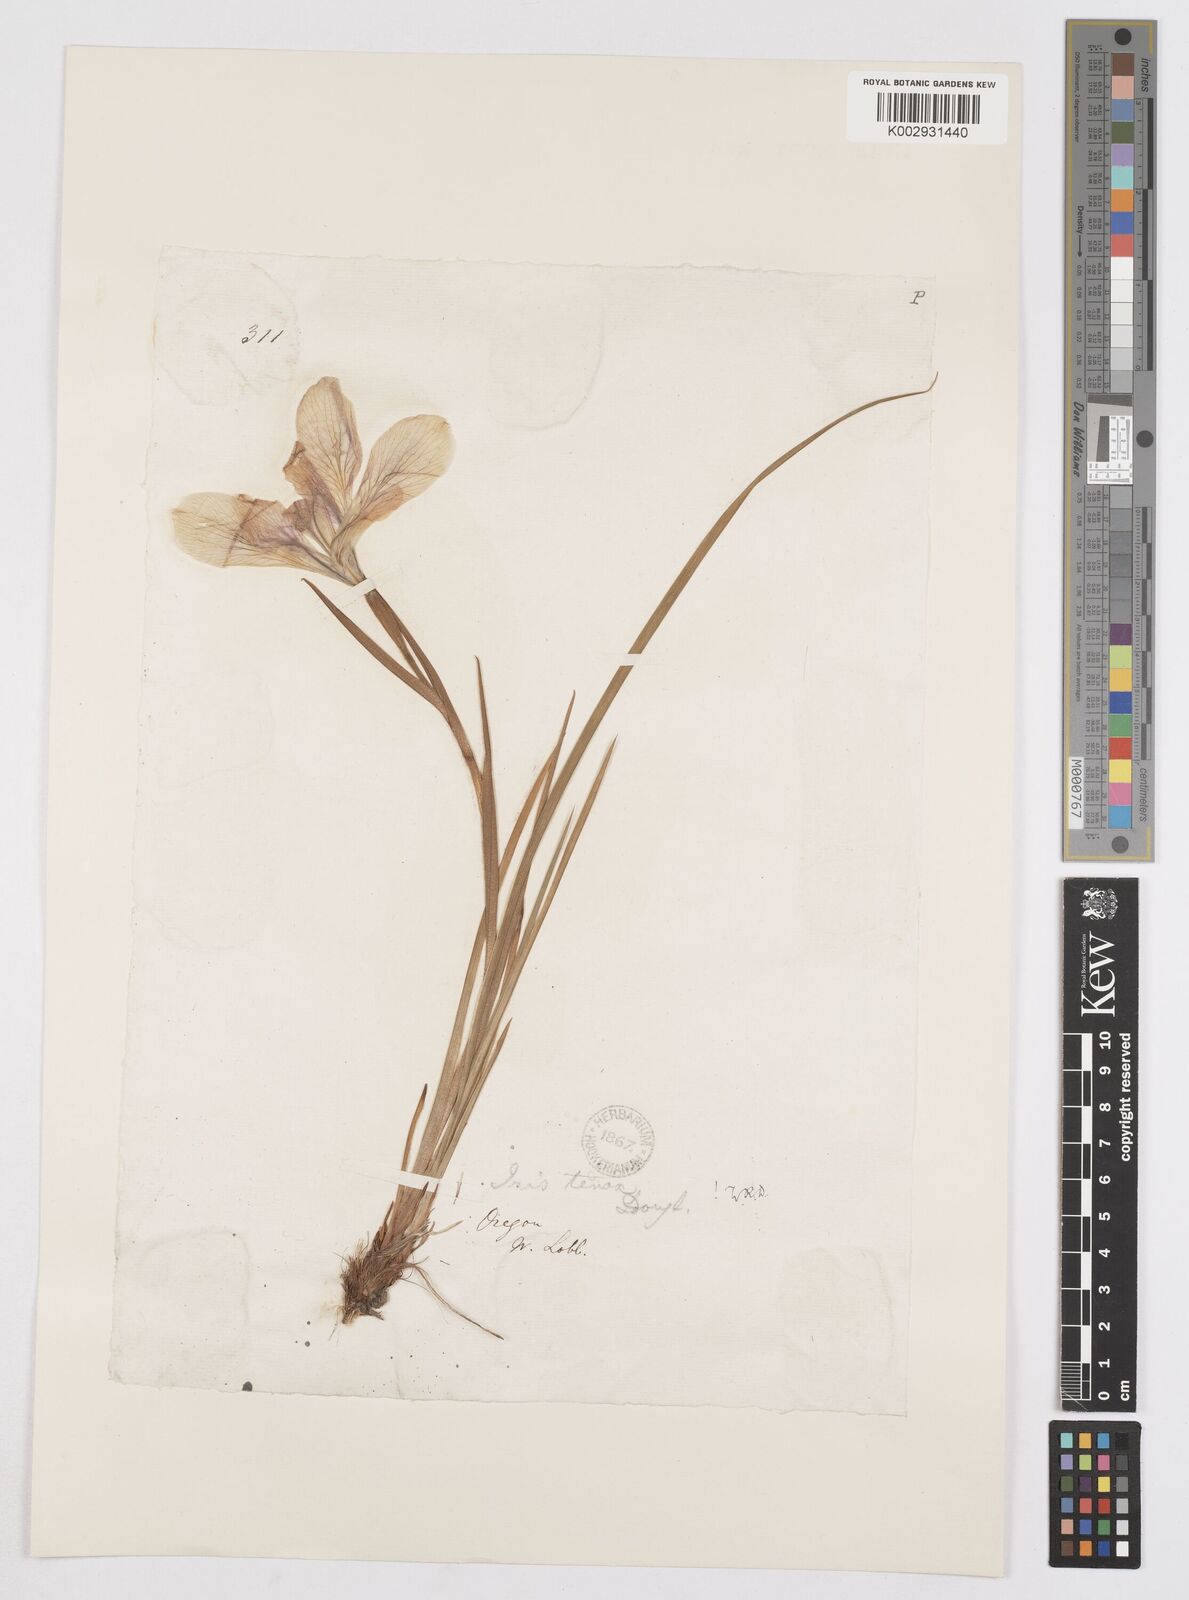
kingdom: Plantae
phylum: Tracheophyta
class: Liliopsida
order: Asparagales
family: Iridaceae
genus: Iris
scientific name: Iris tenax
